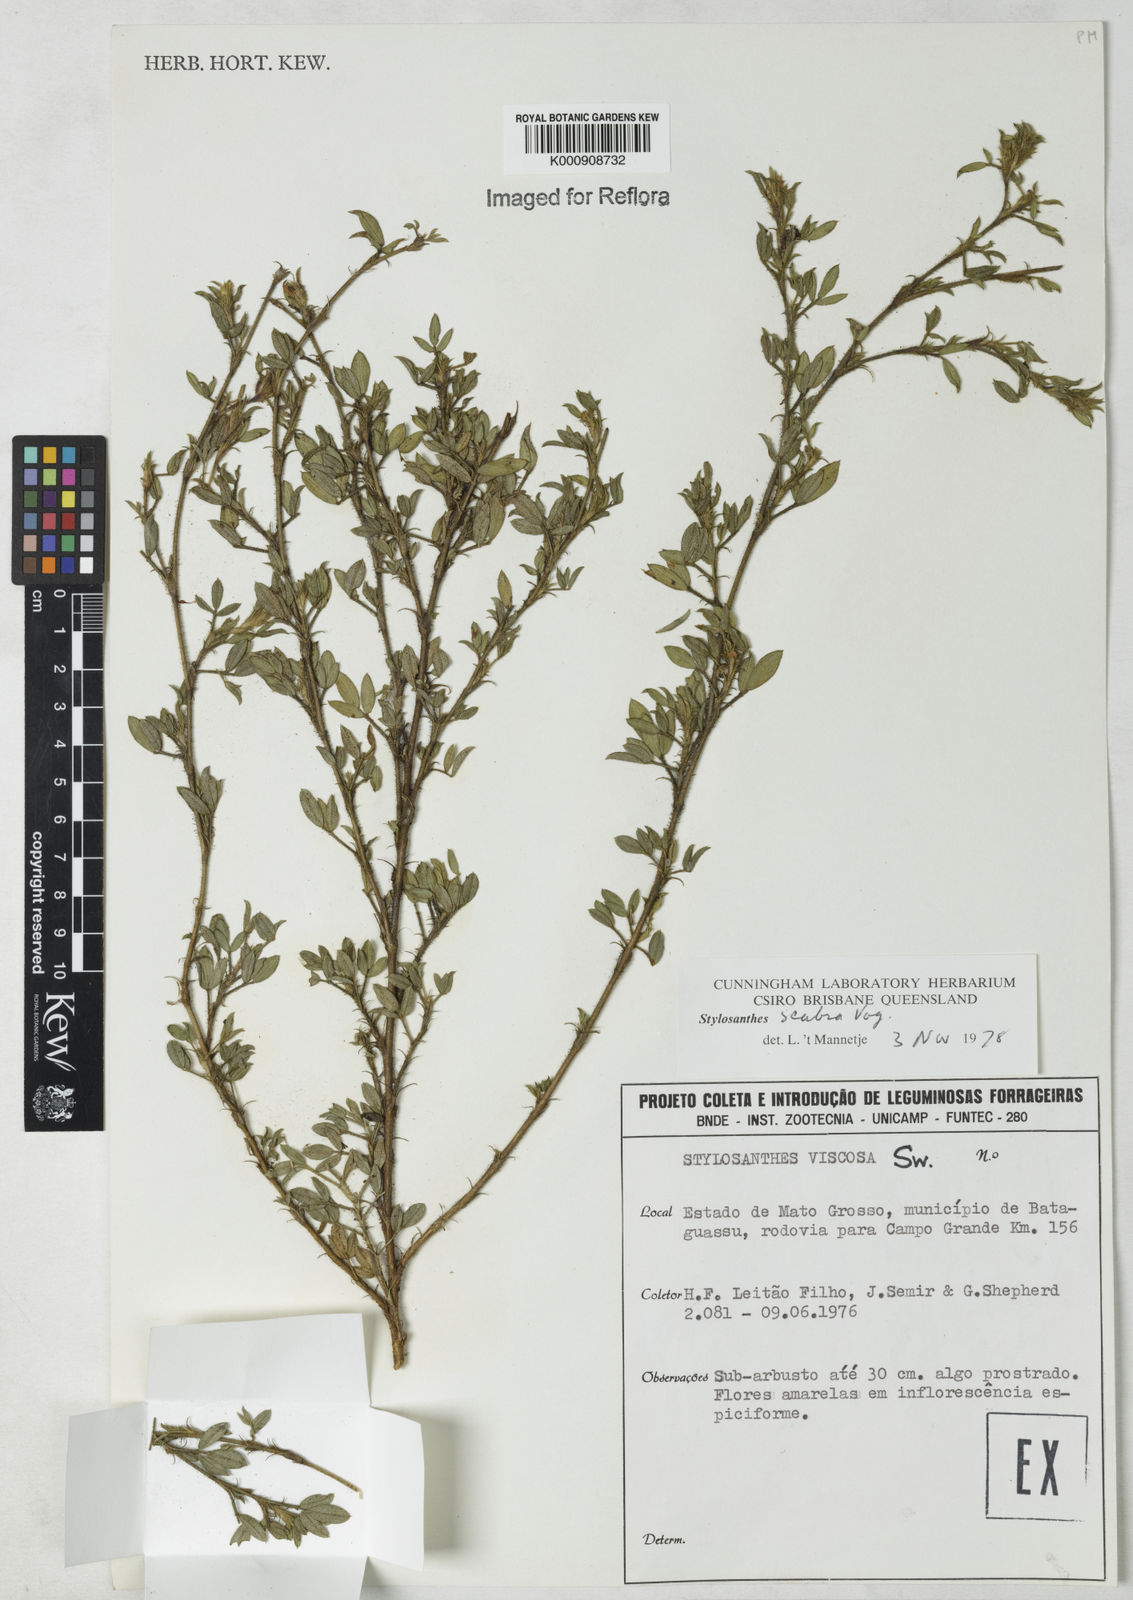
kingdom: Plantae
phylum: Tracheophyta
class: Magnoliopsida
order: Fabales
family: Fabaceae
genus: Stylosanthes
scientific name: Stylosanthes scabra
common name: Pencilflower
